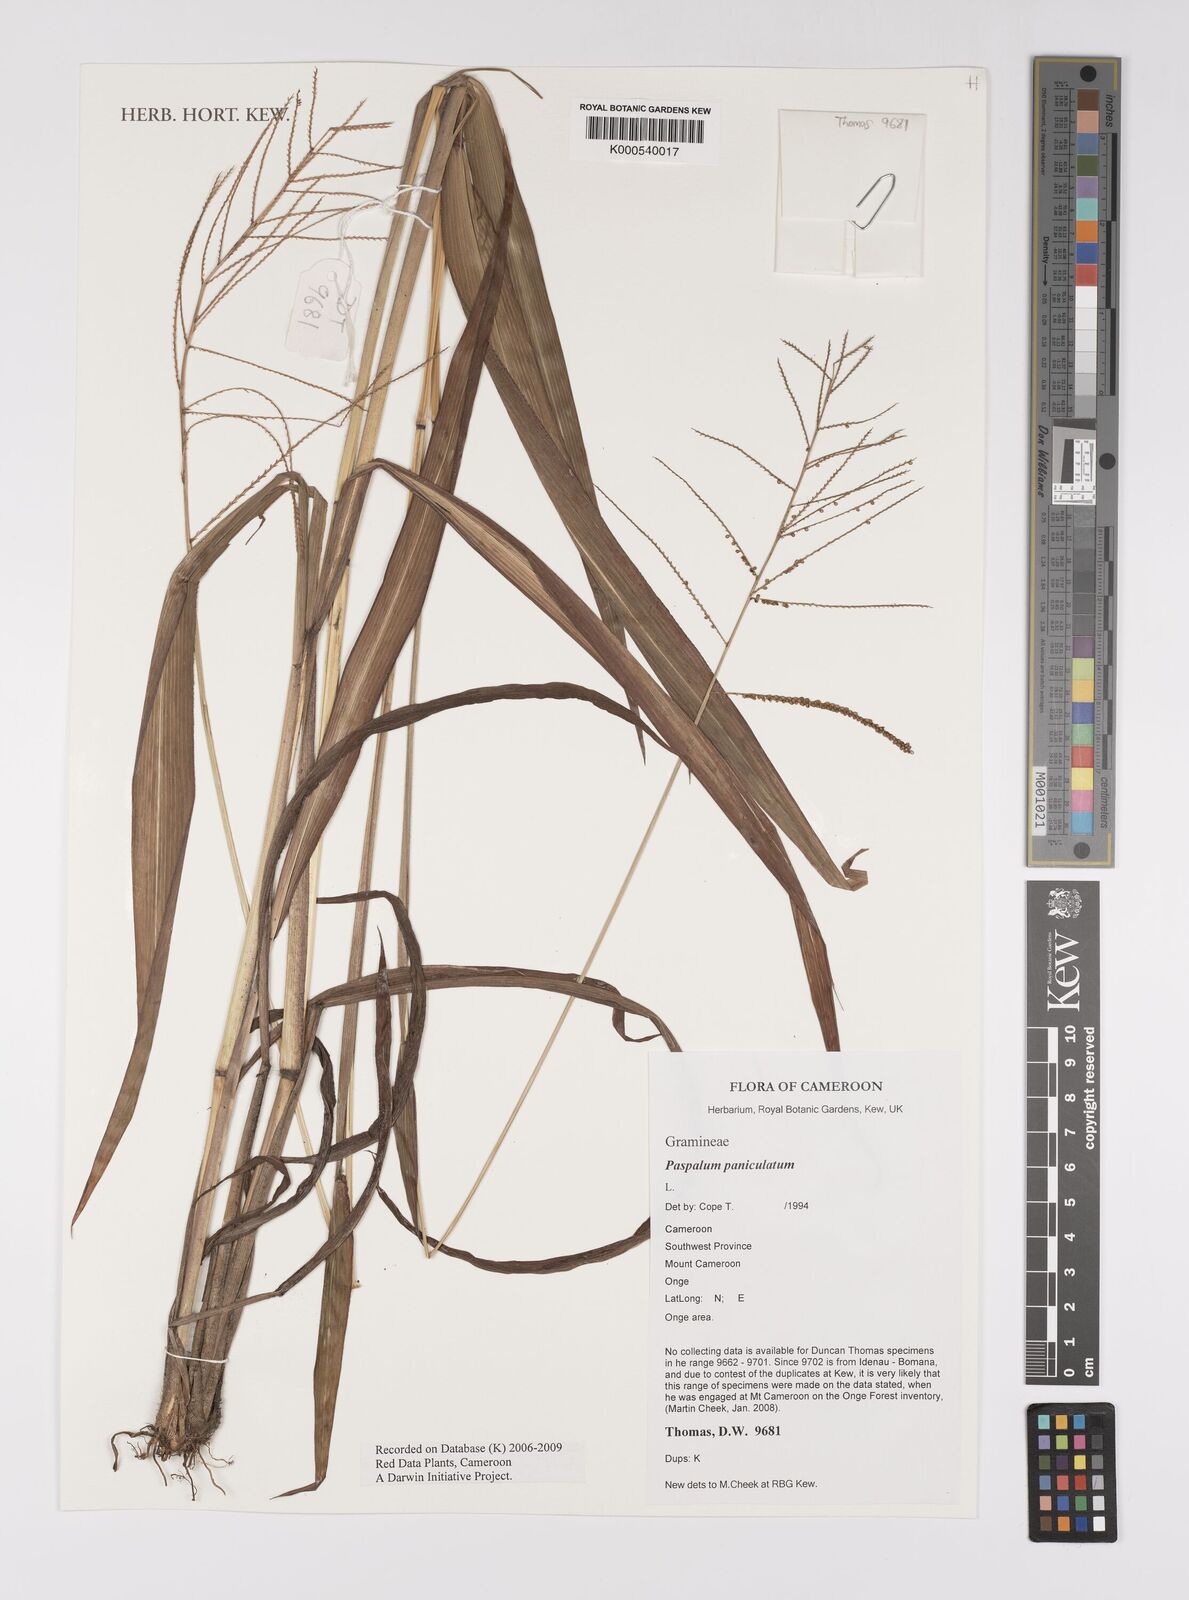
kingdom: Plantae
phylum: Tracheophyta
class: Liliopsida
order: Poales
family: Poaceae
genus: Paspalum
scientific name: Paspalum paniculatum
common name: Arrocillo
